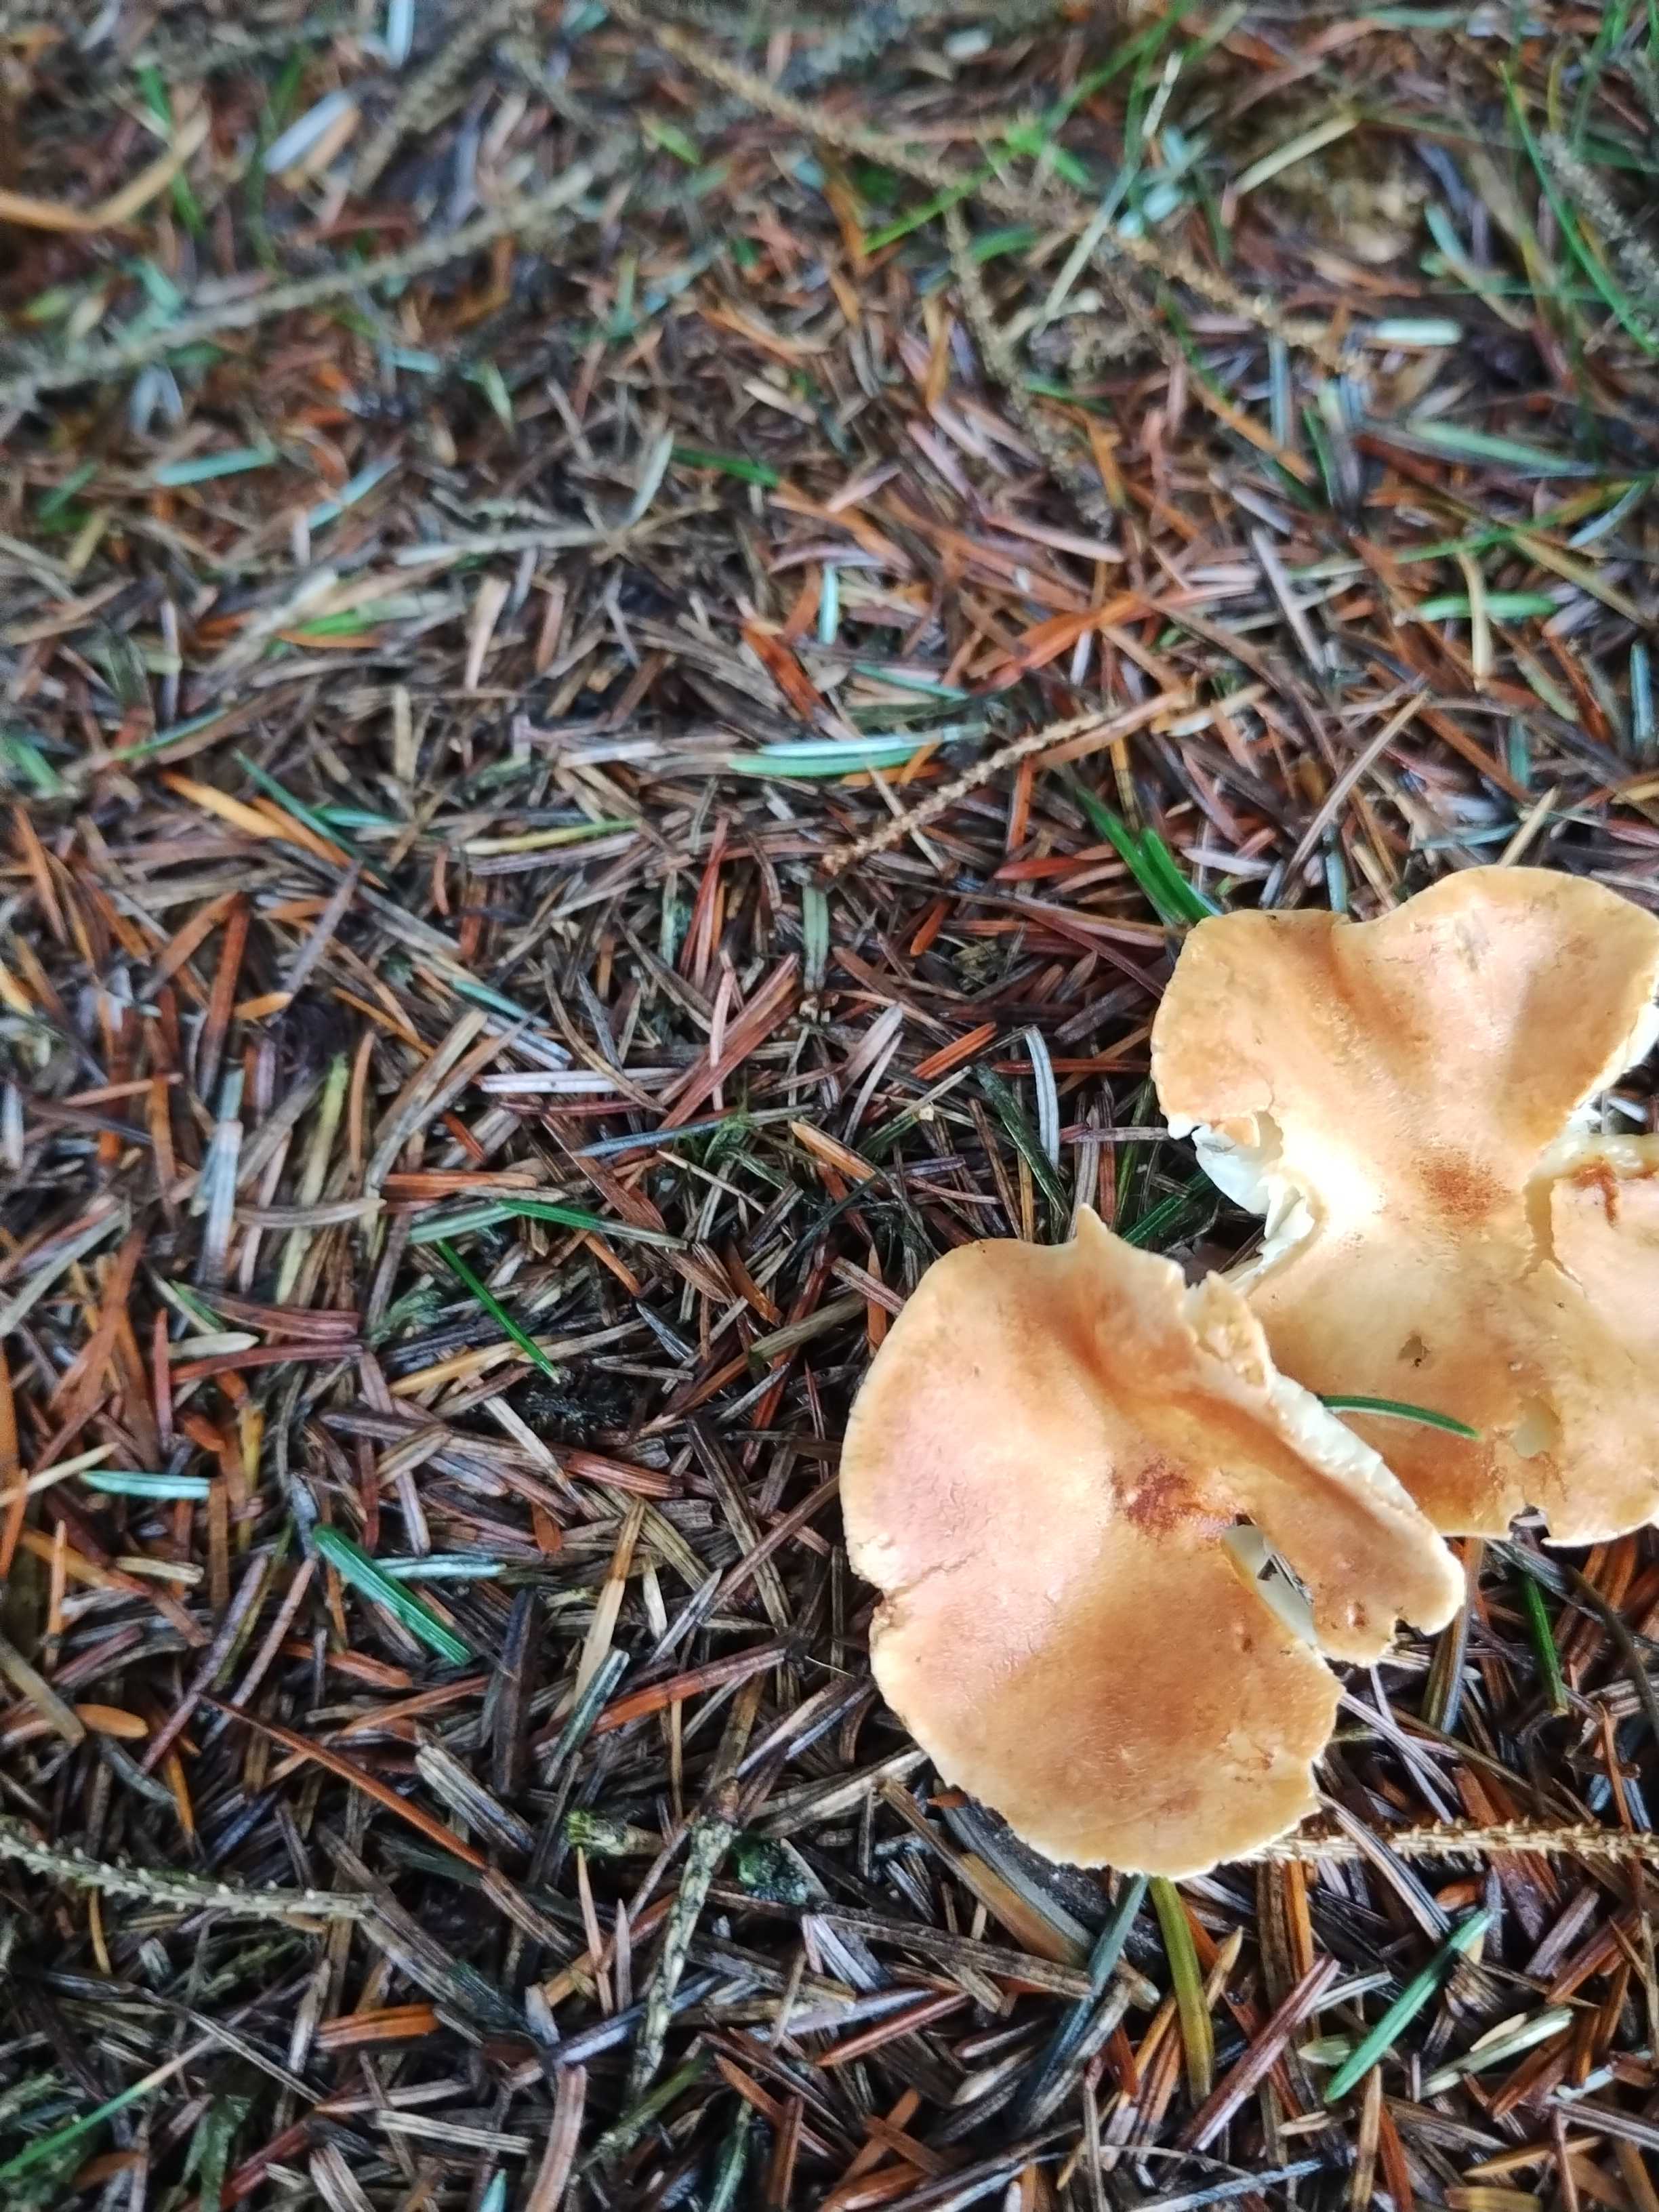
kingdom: Fungi
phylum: Basidiomycota
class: Agaricomycetes
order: Agaricales
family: Tricholomataceae
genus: Paralepista
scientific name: Paralepista flaccida
